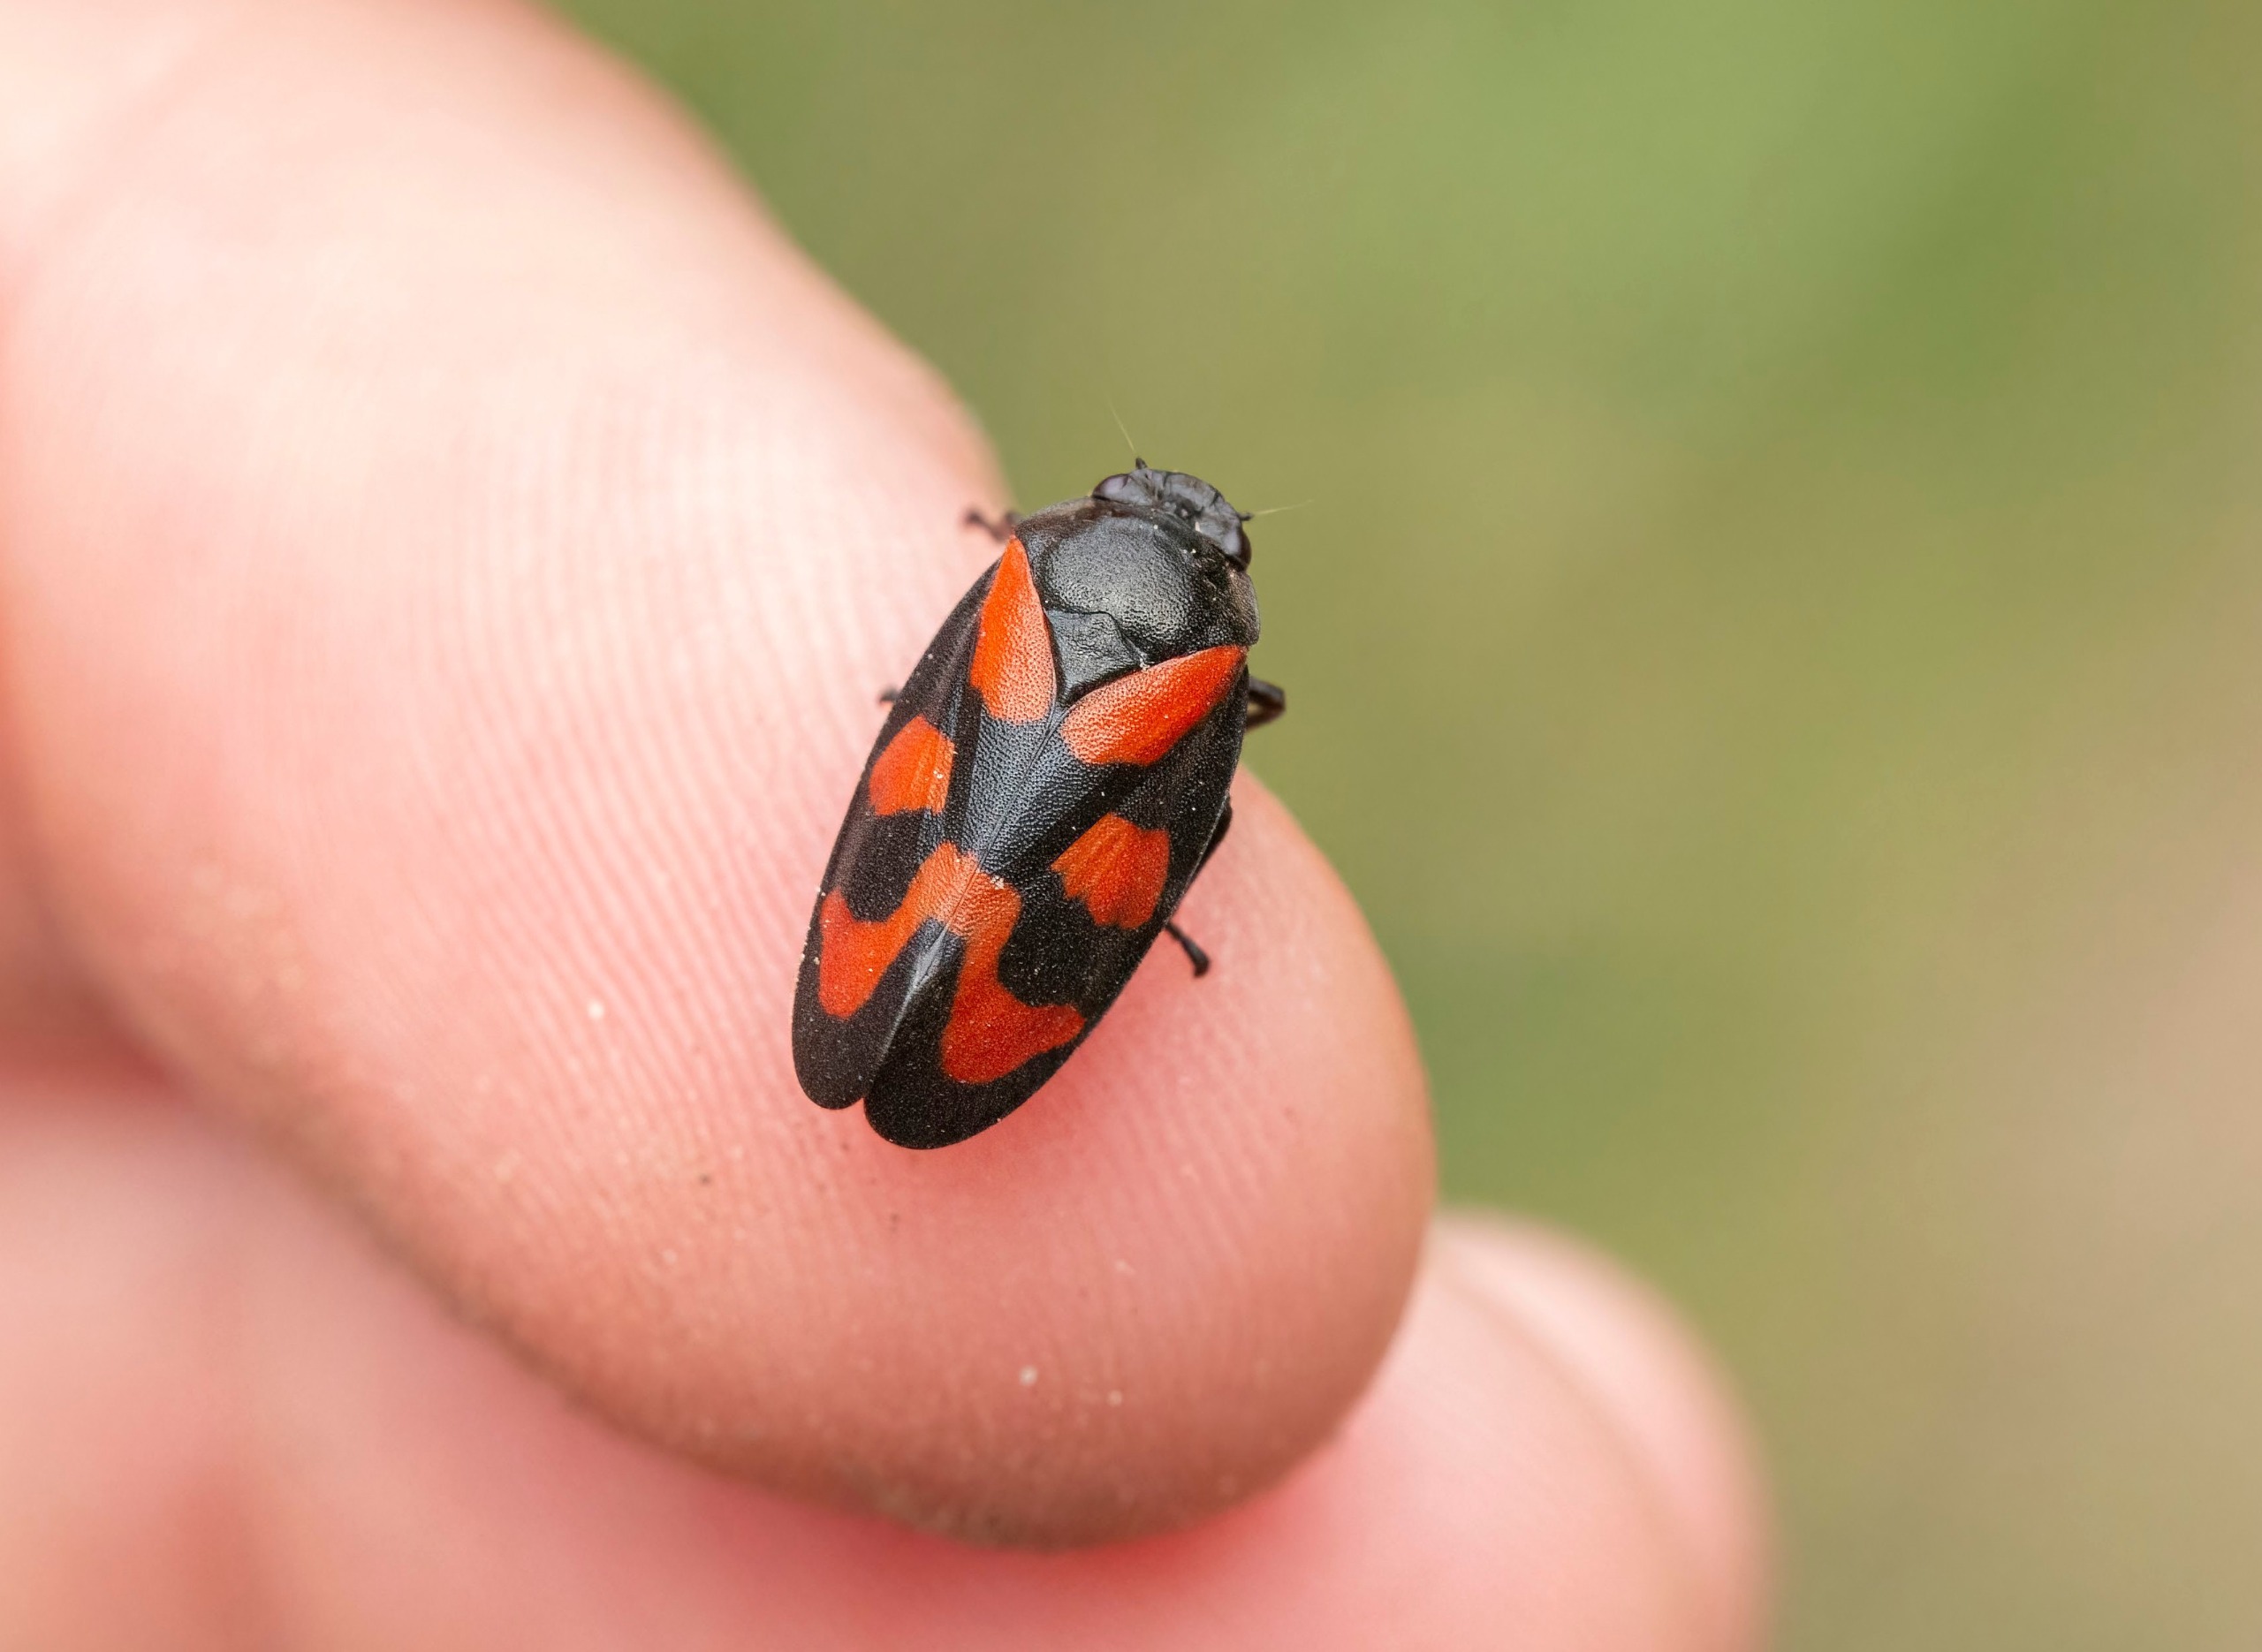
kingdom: Animalia
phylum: Arthropoda
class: Insecta
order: Hemiptera
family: Cercopidae
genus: Cercopis
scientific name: Cercopis vulnerata
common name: Blodcikade
